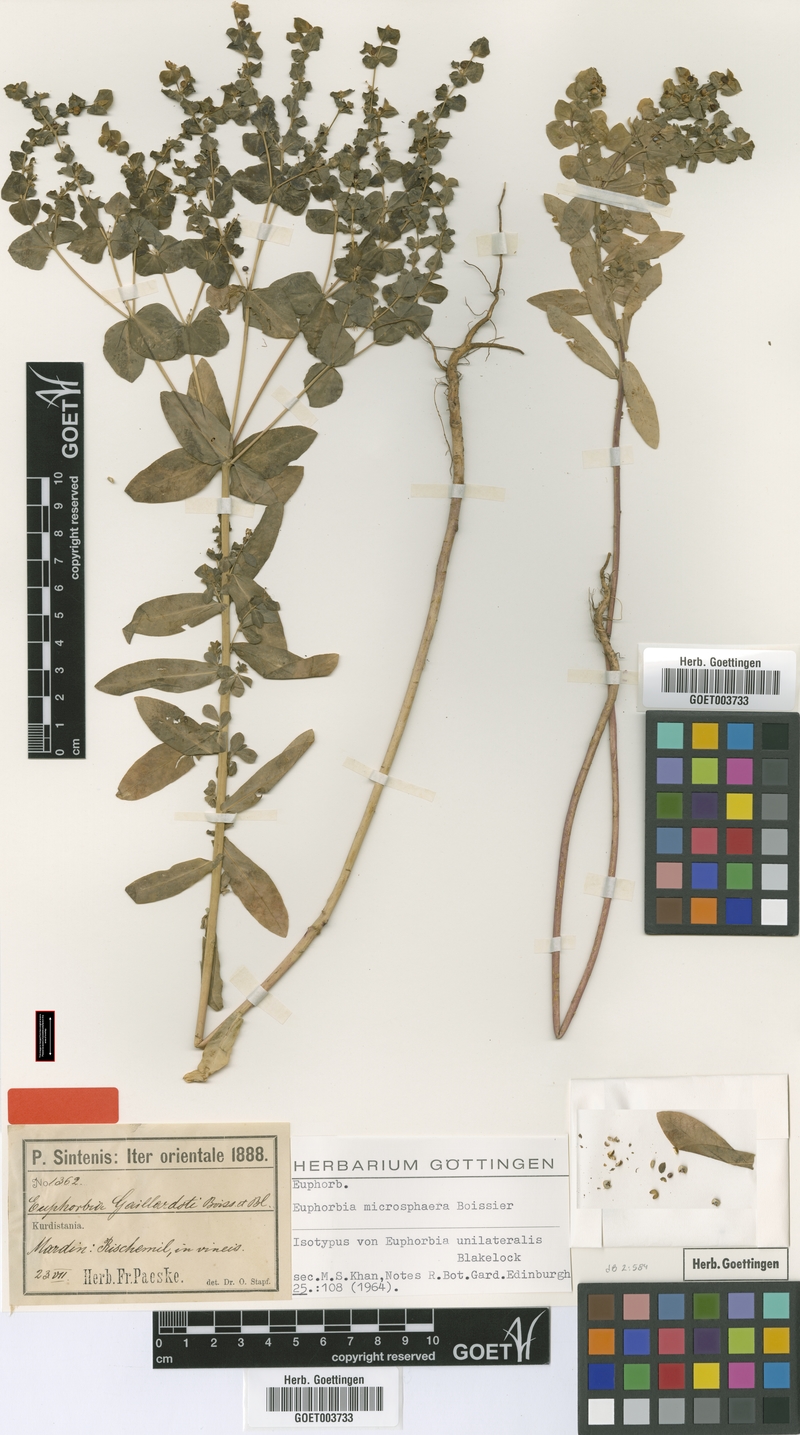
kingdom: Plantae
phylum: Tracheophyta
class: Magnoliopsida
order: Malpighiales
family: Euphorbiaceae
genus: Euphorbia
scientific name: Euphorbia microsphaera
